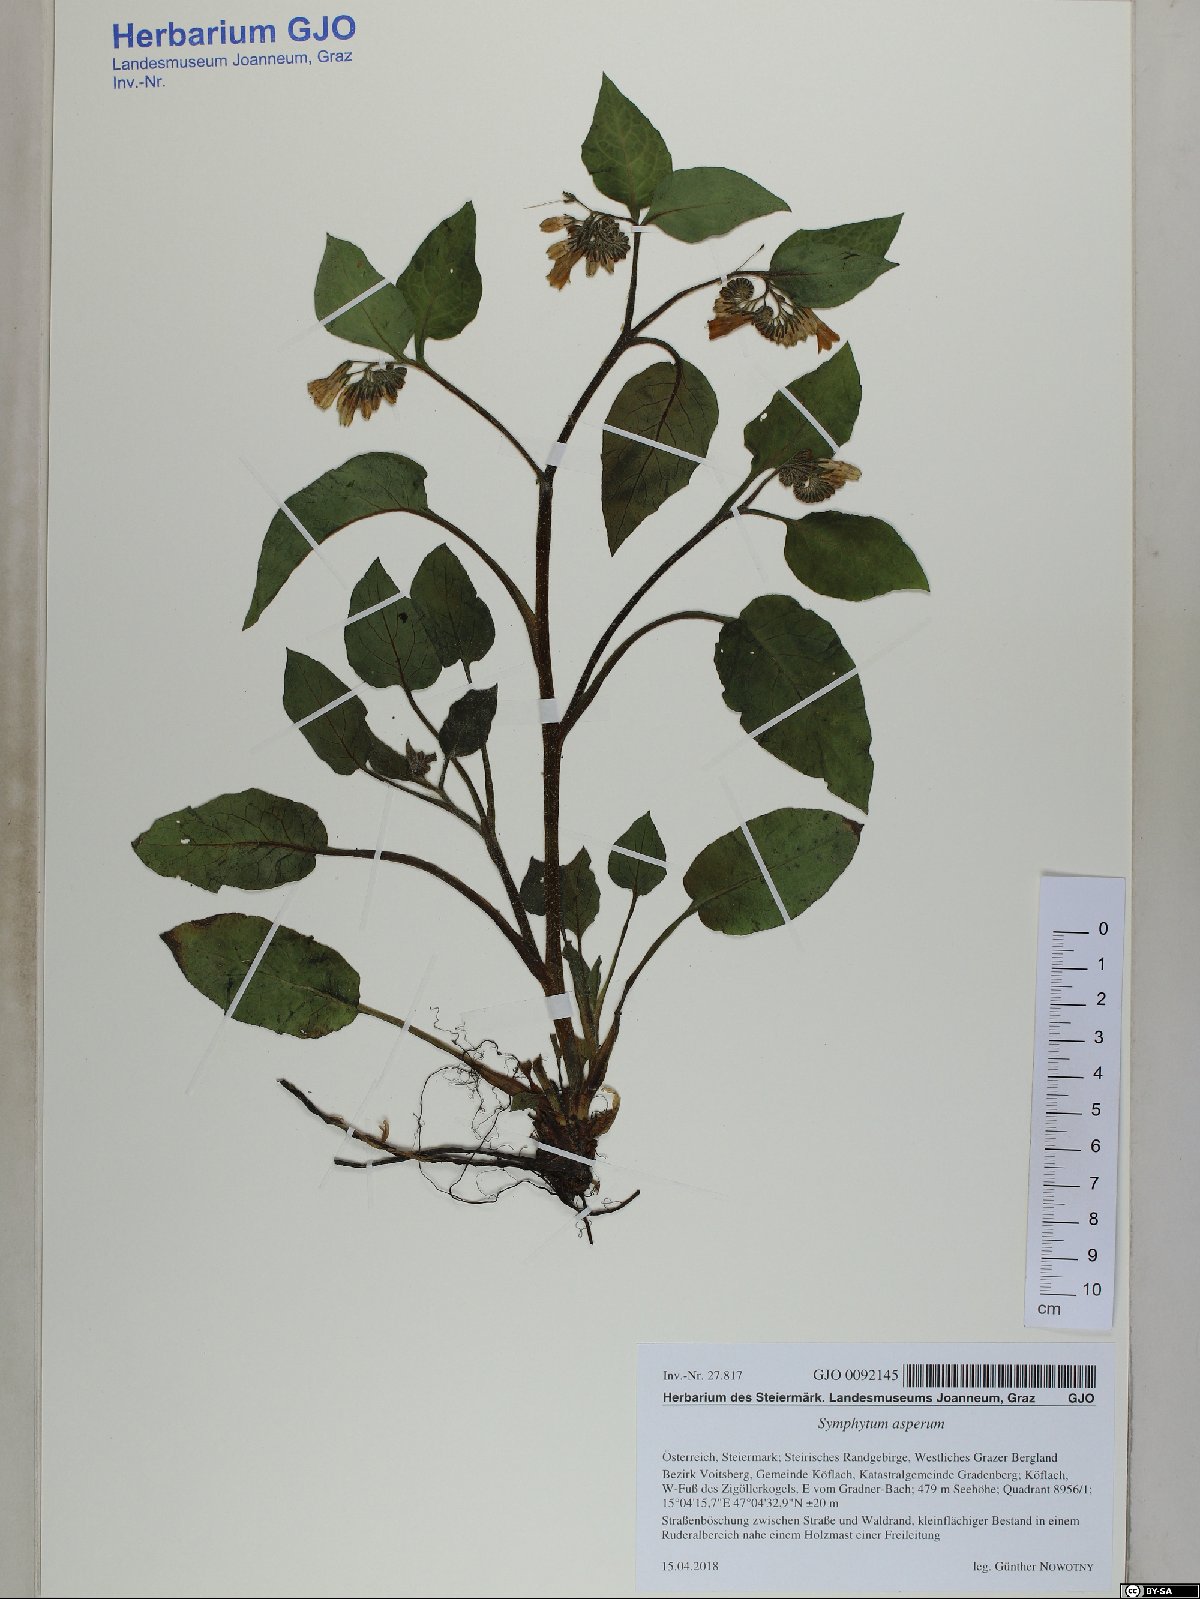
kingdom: Plantae
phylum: Tracheophyta
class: Magnoliopsida
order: Boraginales
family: Boraginaceae
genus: Symphytum
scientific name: Symphytum asperum
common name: Prickly comfrey
